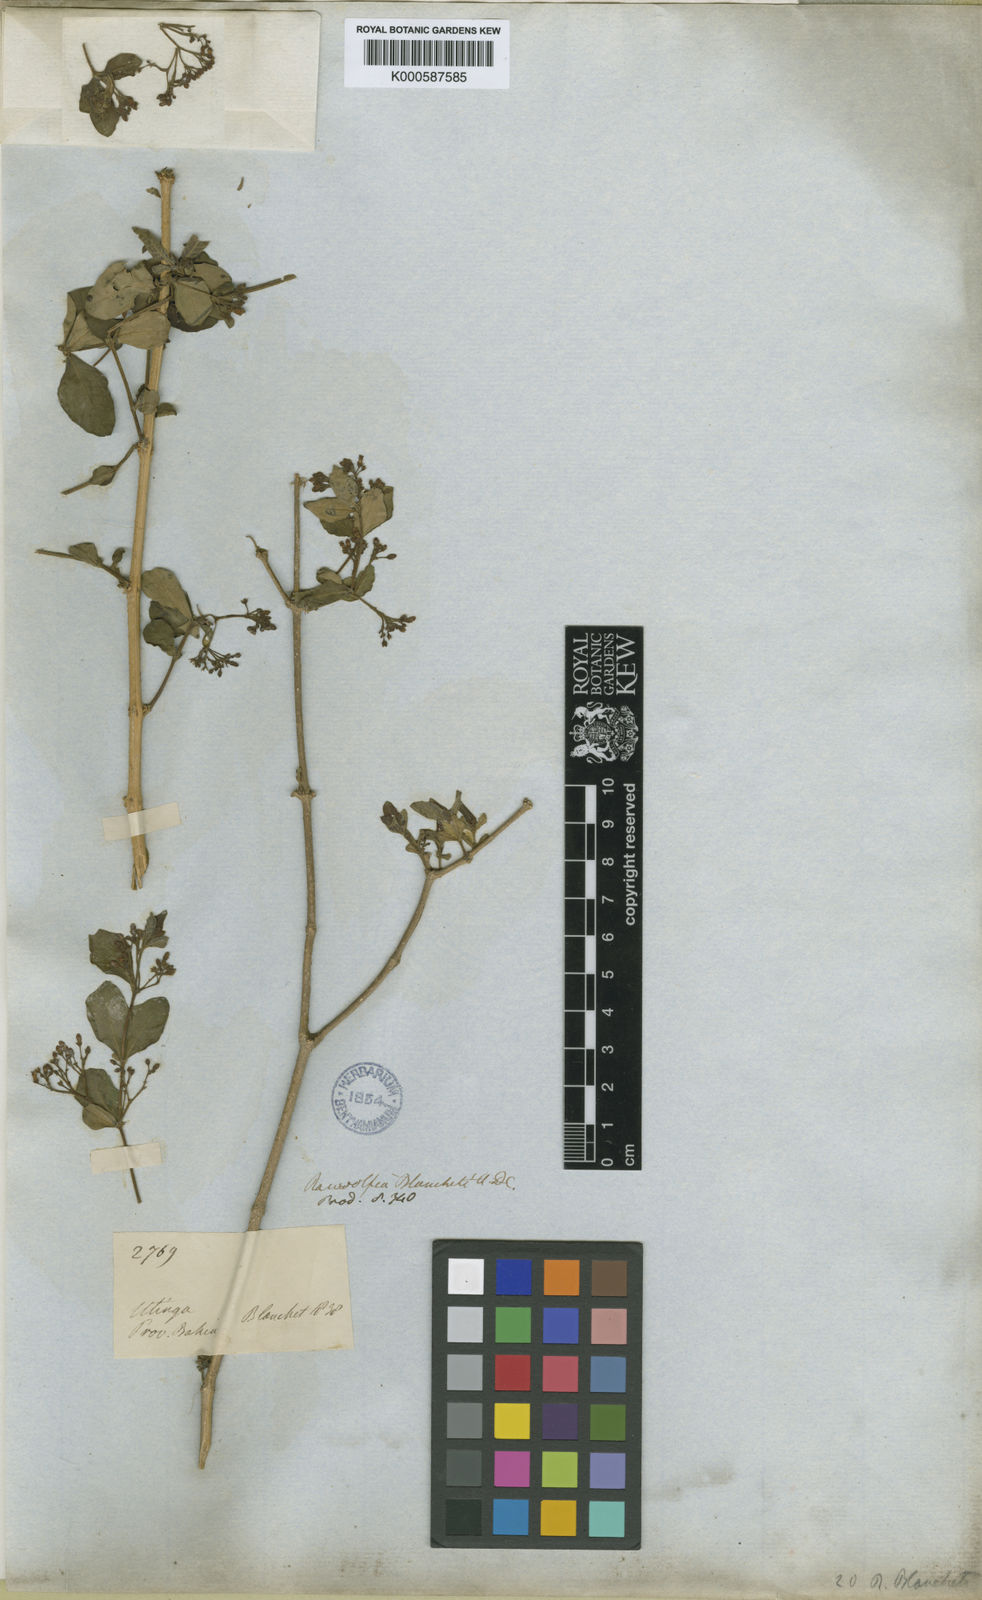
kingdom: Plantae
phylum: Tracheophyta
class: Magnoliopsida
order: Gentianales
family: Apocynaceae
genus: Rauvolfia
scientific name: Rauvolfia ligustrina
